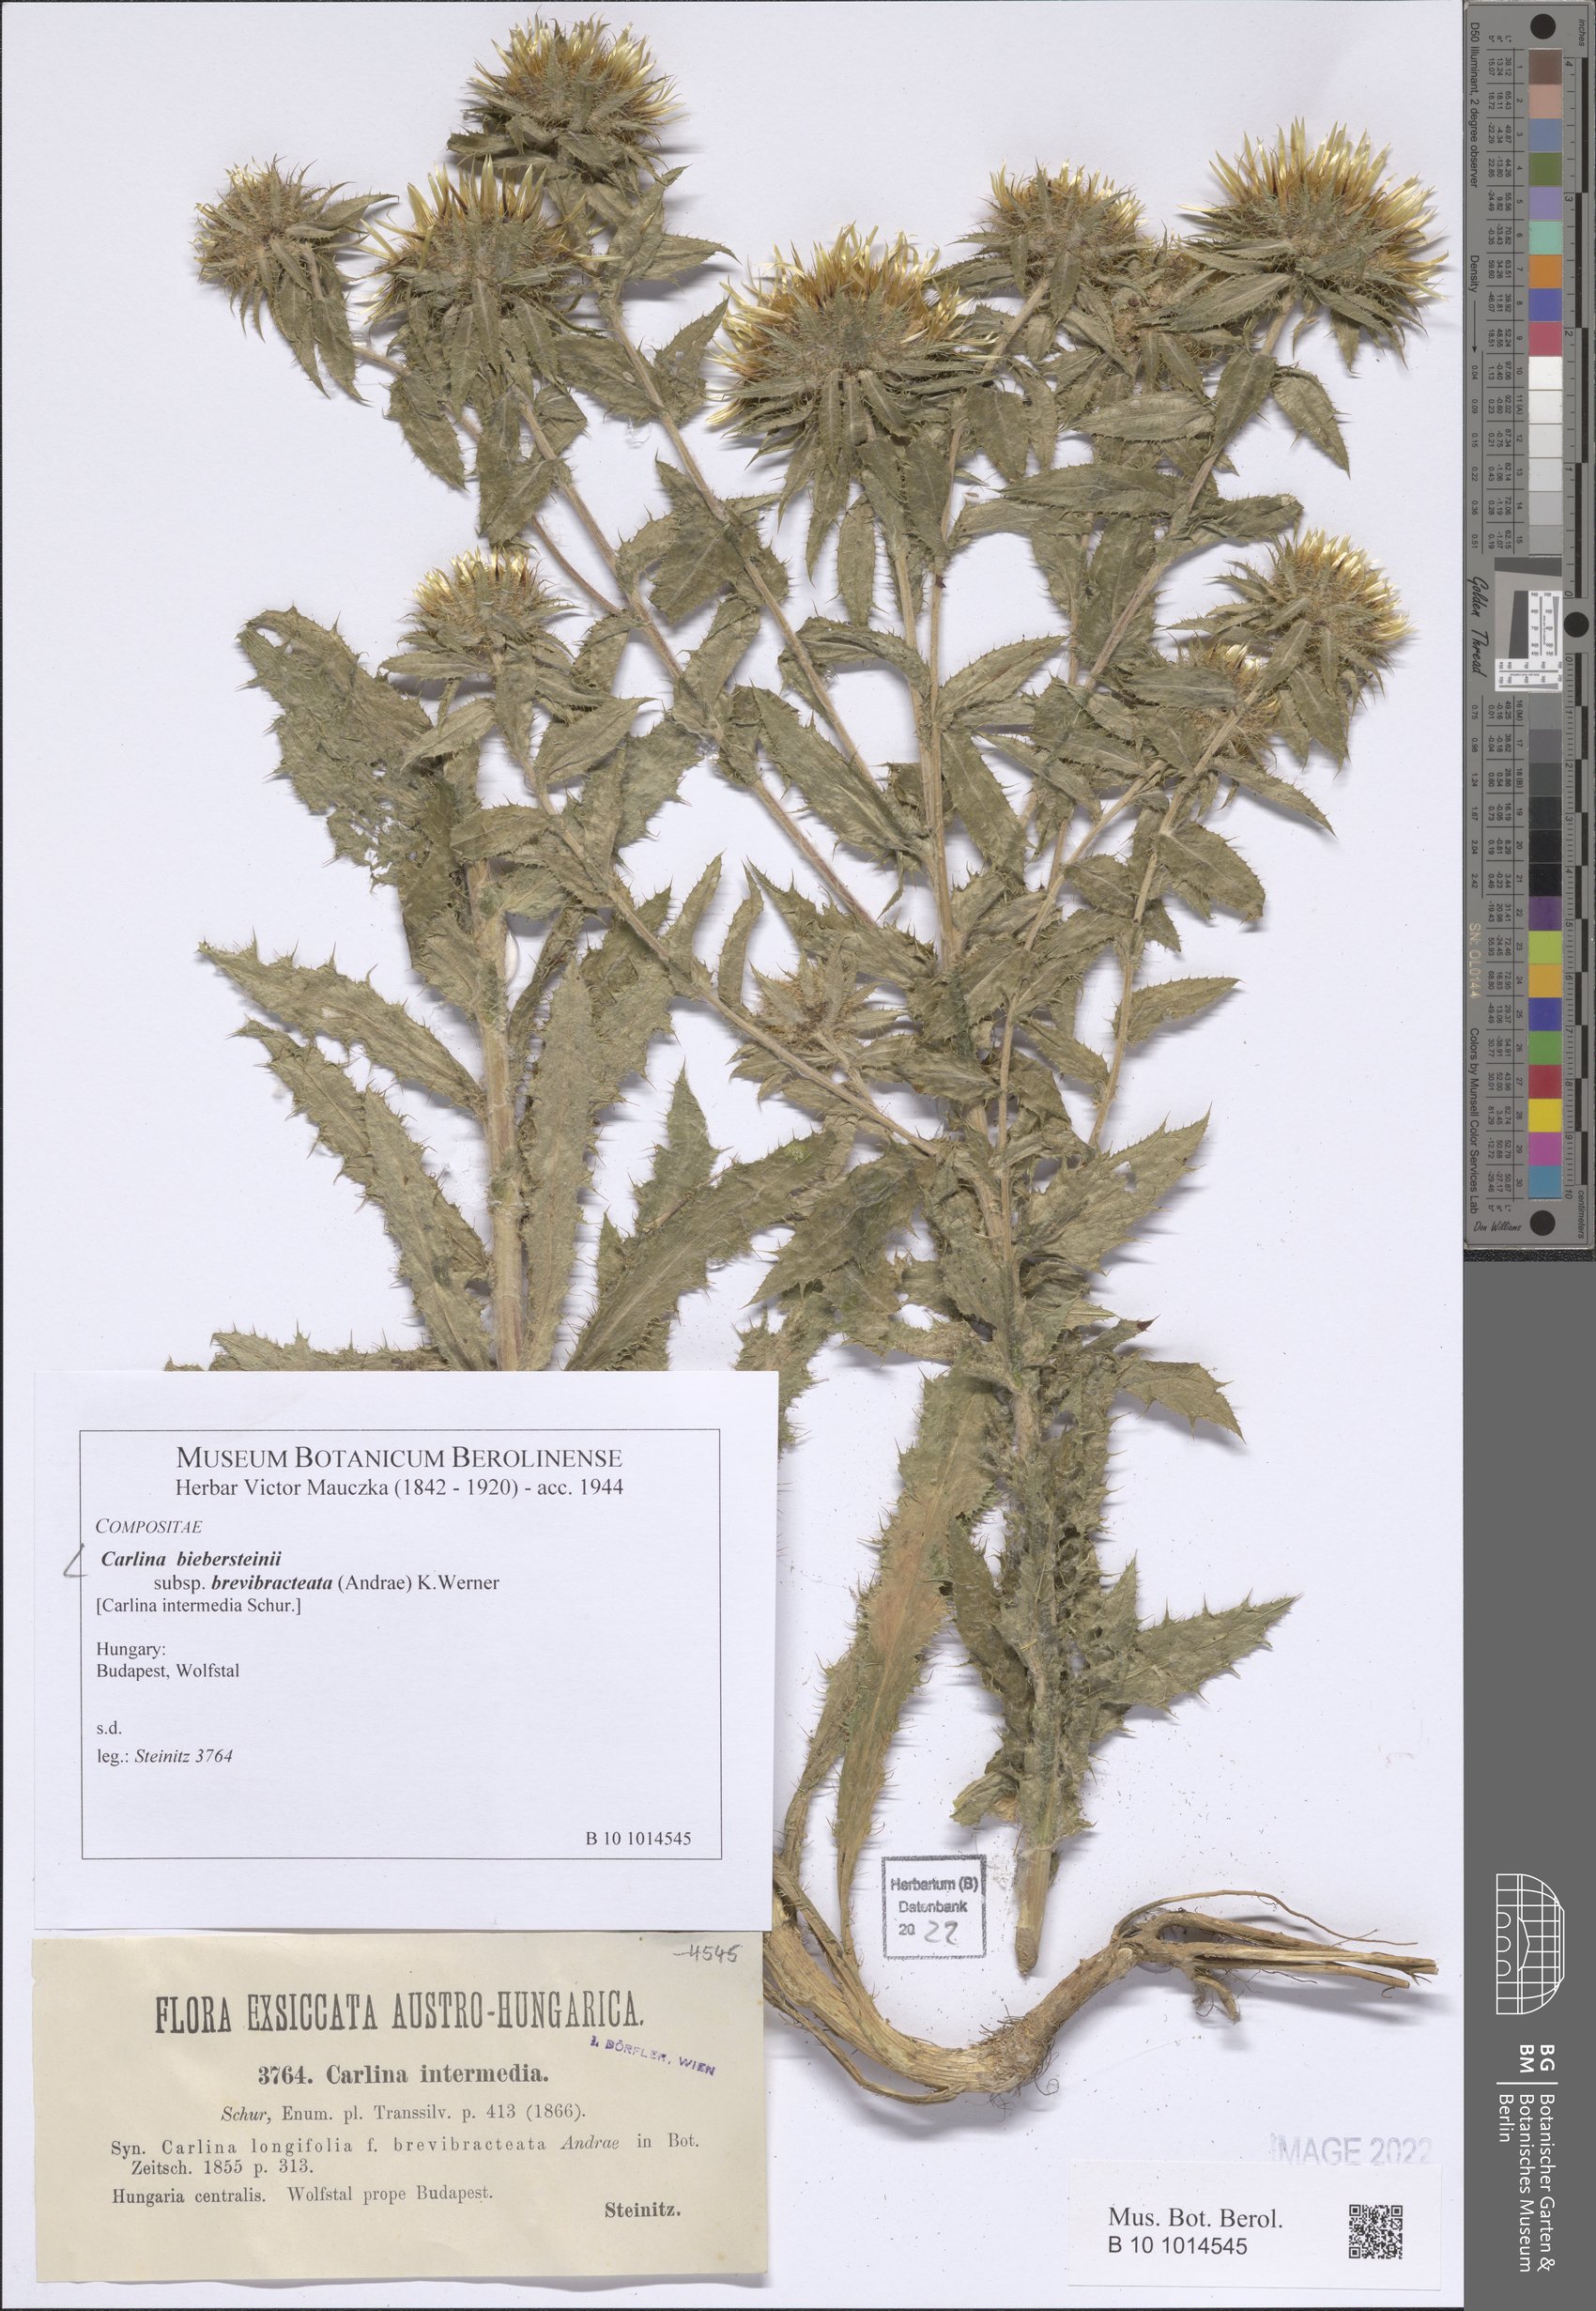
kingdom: Plantae
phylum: Tracheophyta
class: Magnoliopsida
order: Asterales
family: Asteraceae
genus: Carlina
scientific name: Carlina biebersteinii
